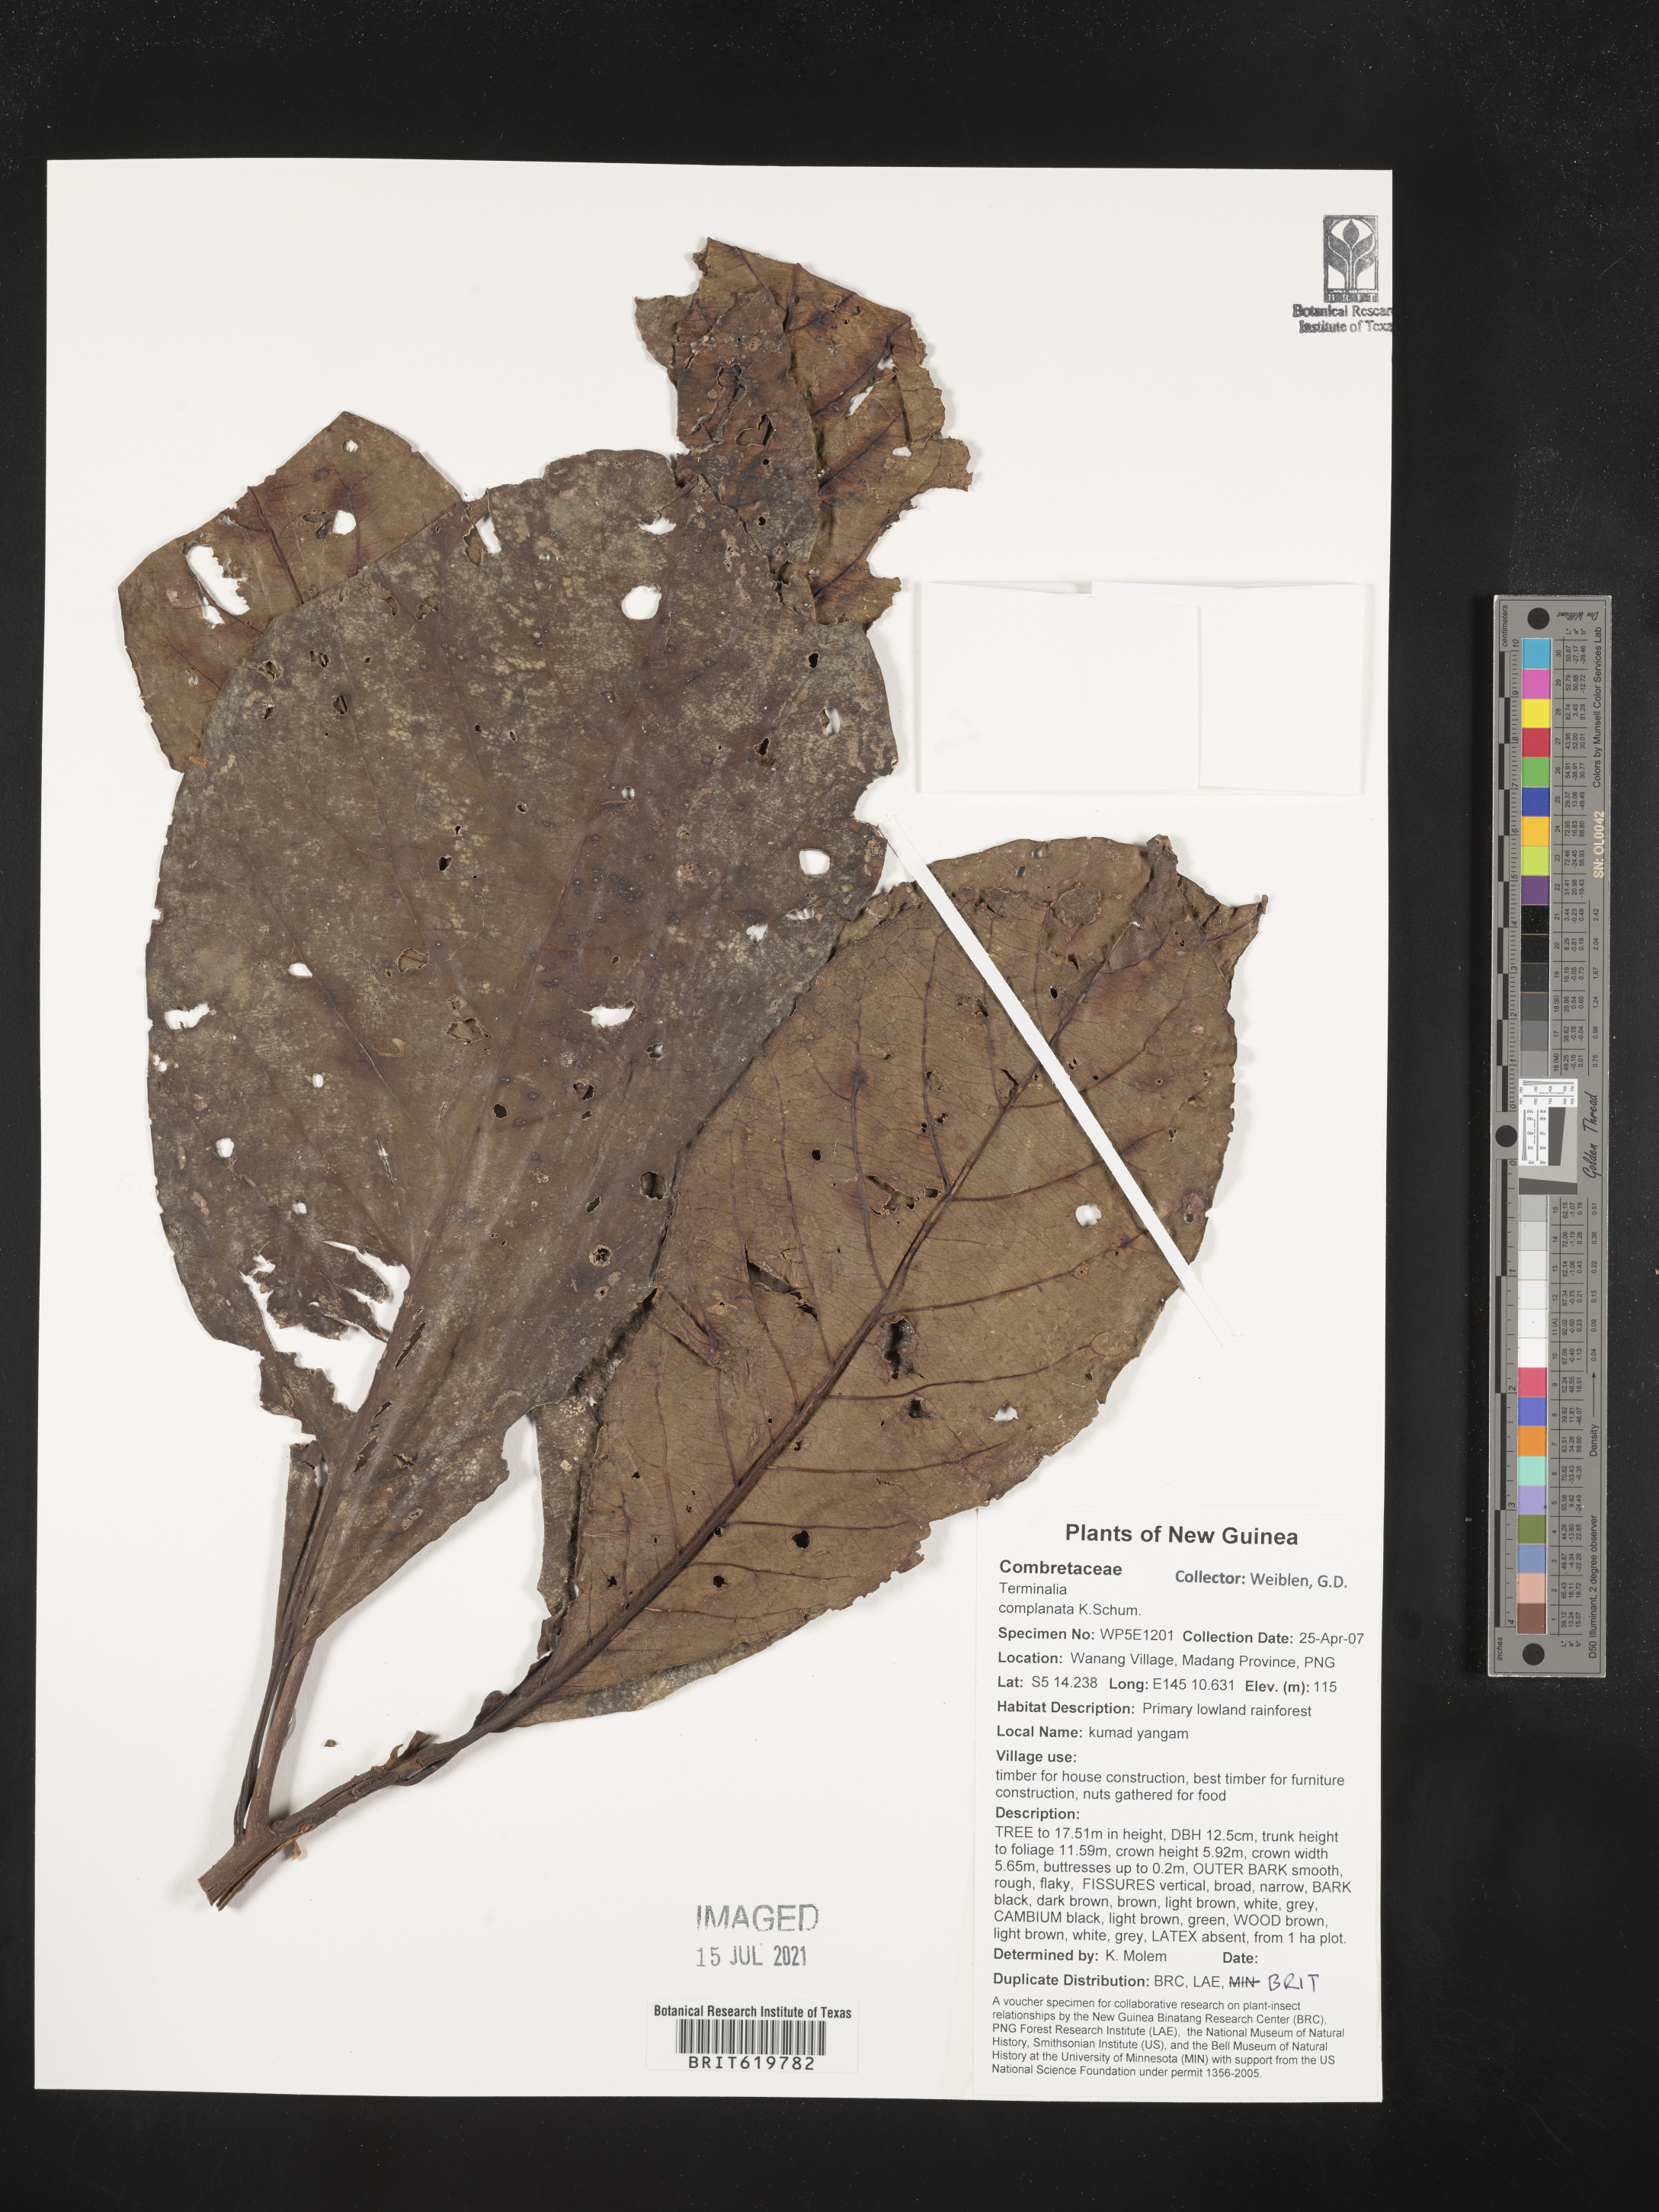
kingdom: Plantae
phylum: Tracheophyta
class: Magnoliopsida
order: Myrtales
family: Combretaceae
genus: Terminalia
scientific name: Terminalia complanata
